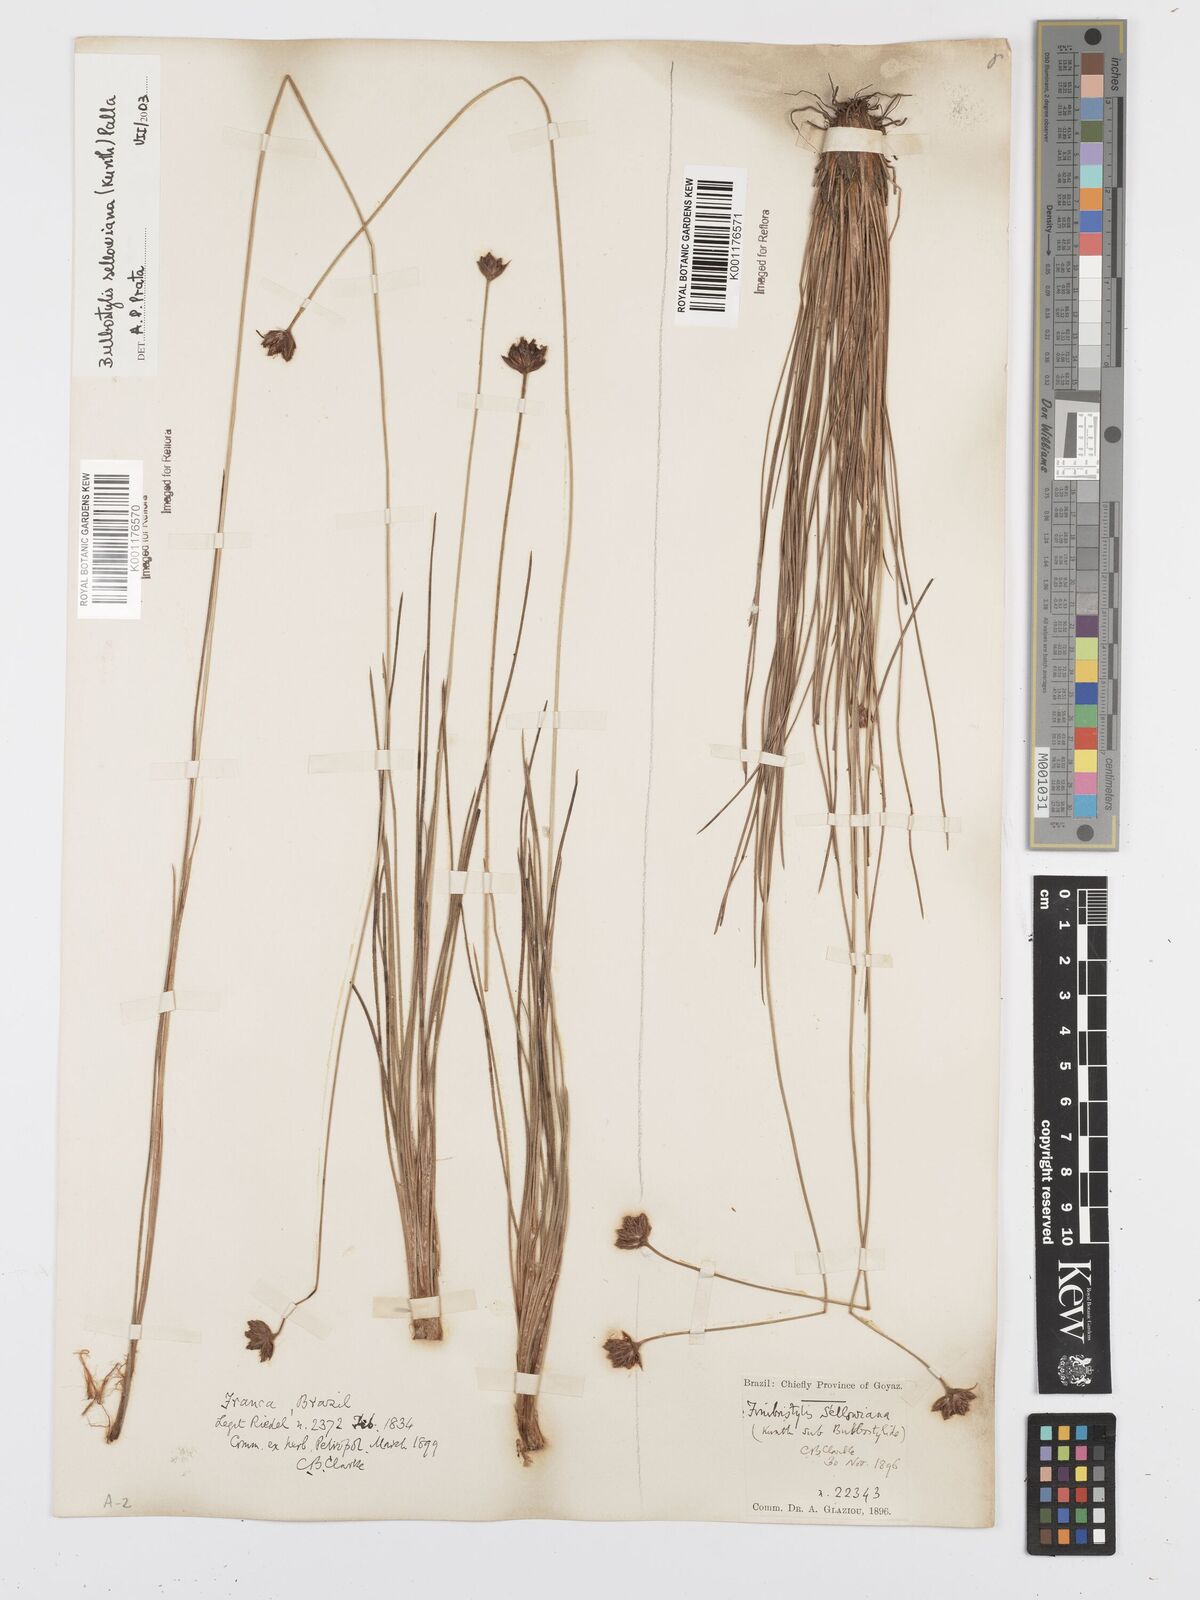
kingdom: Plantae
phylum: Tracheophyta
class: Liliopsida
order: Poales
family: Cyperaceae
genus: Bulbostylis
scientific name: Bulbostylis sellowiana
